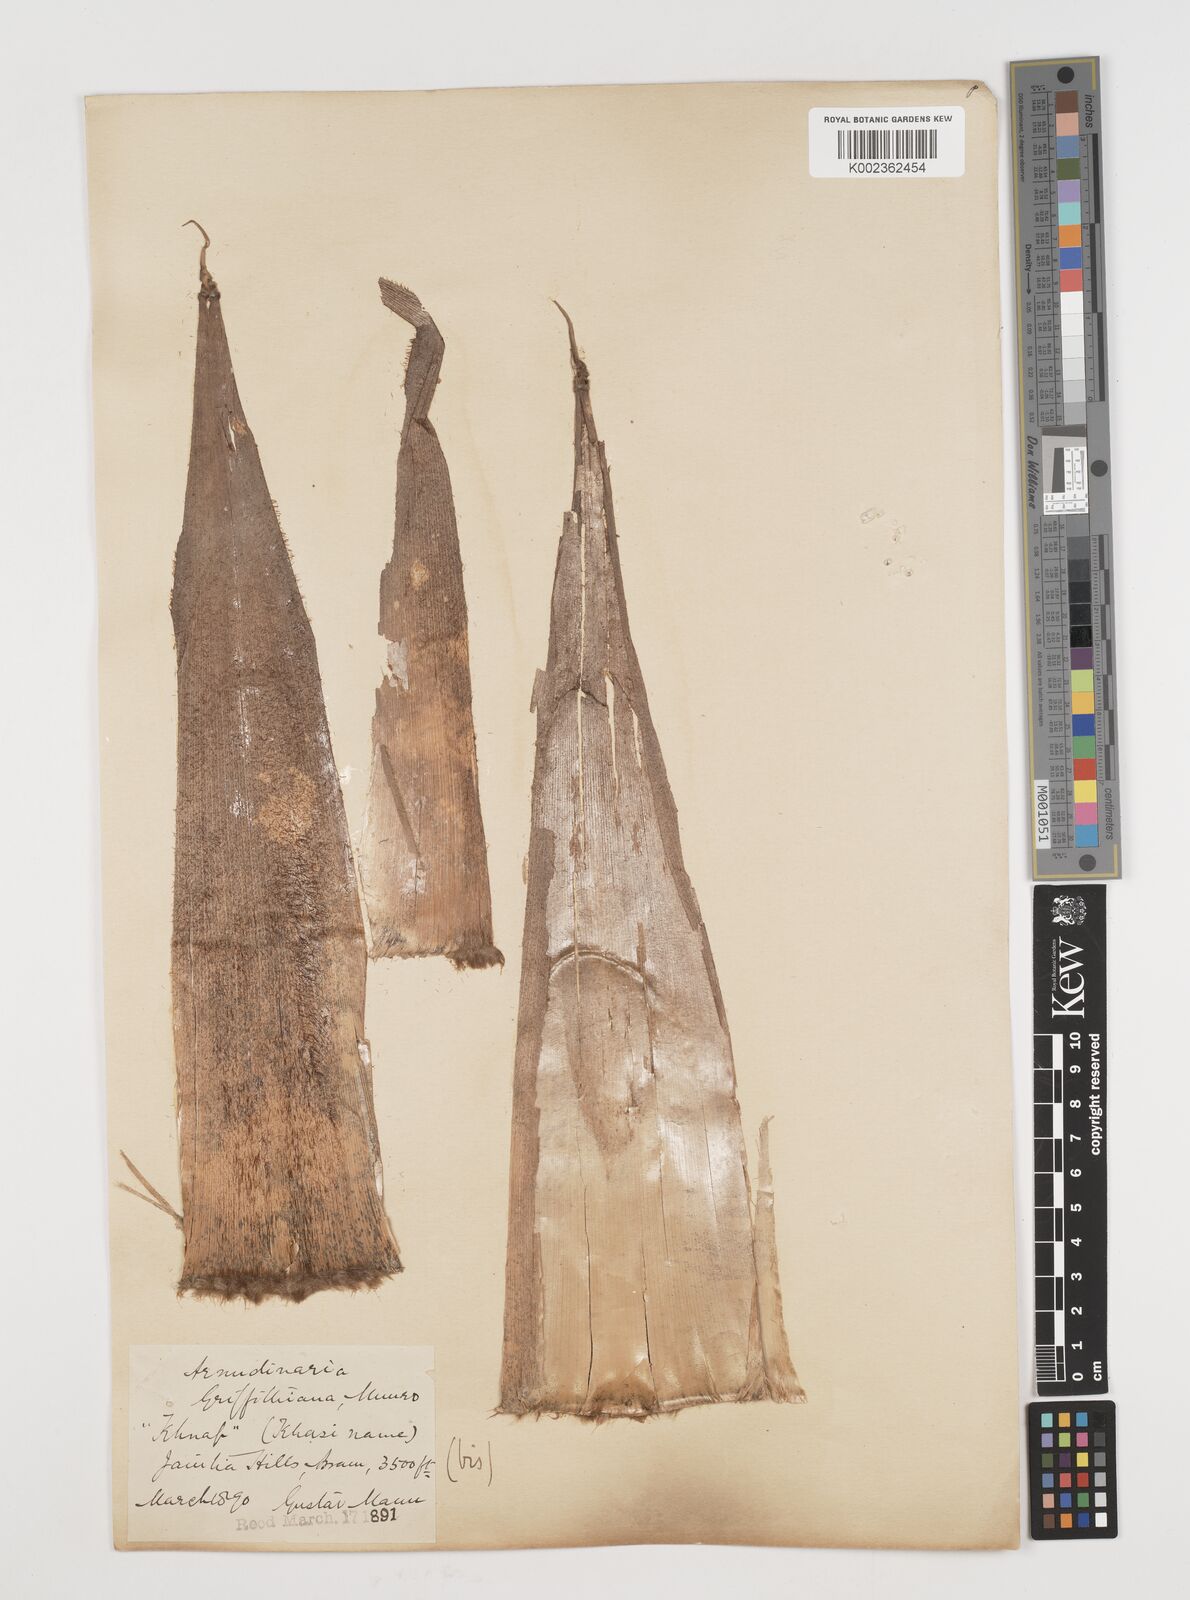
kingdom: Plantae
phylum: Tracheophyta
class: Liliopsida
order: Poales
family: Poaceae
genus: Chimonocalamus
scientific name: Chimonocalamus griffithianus
